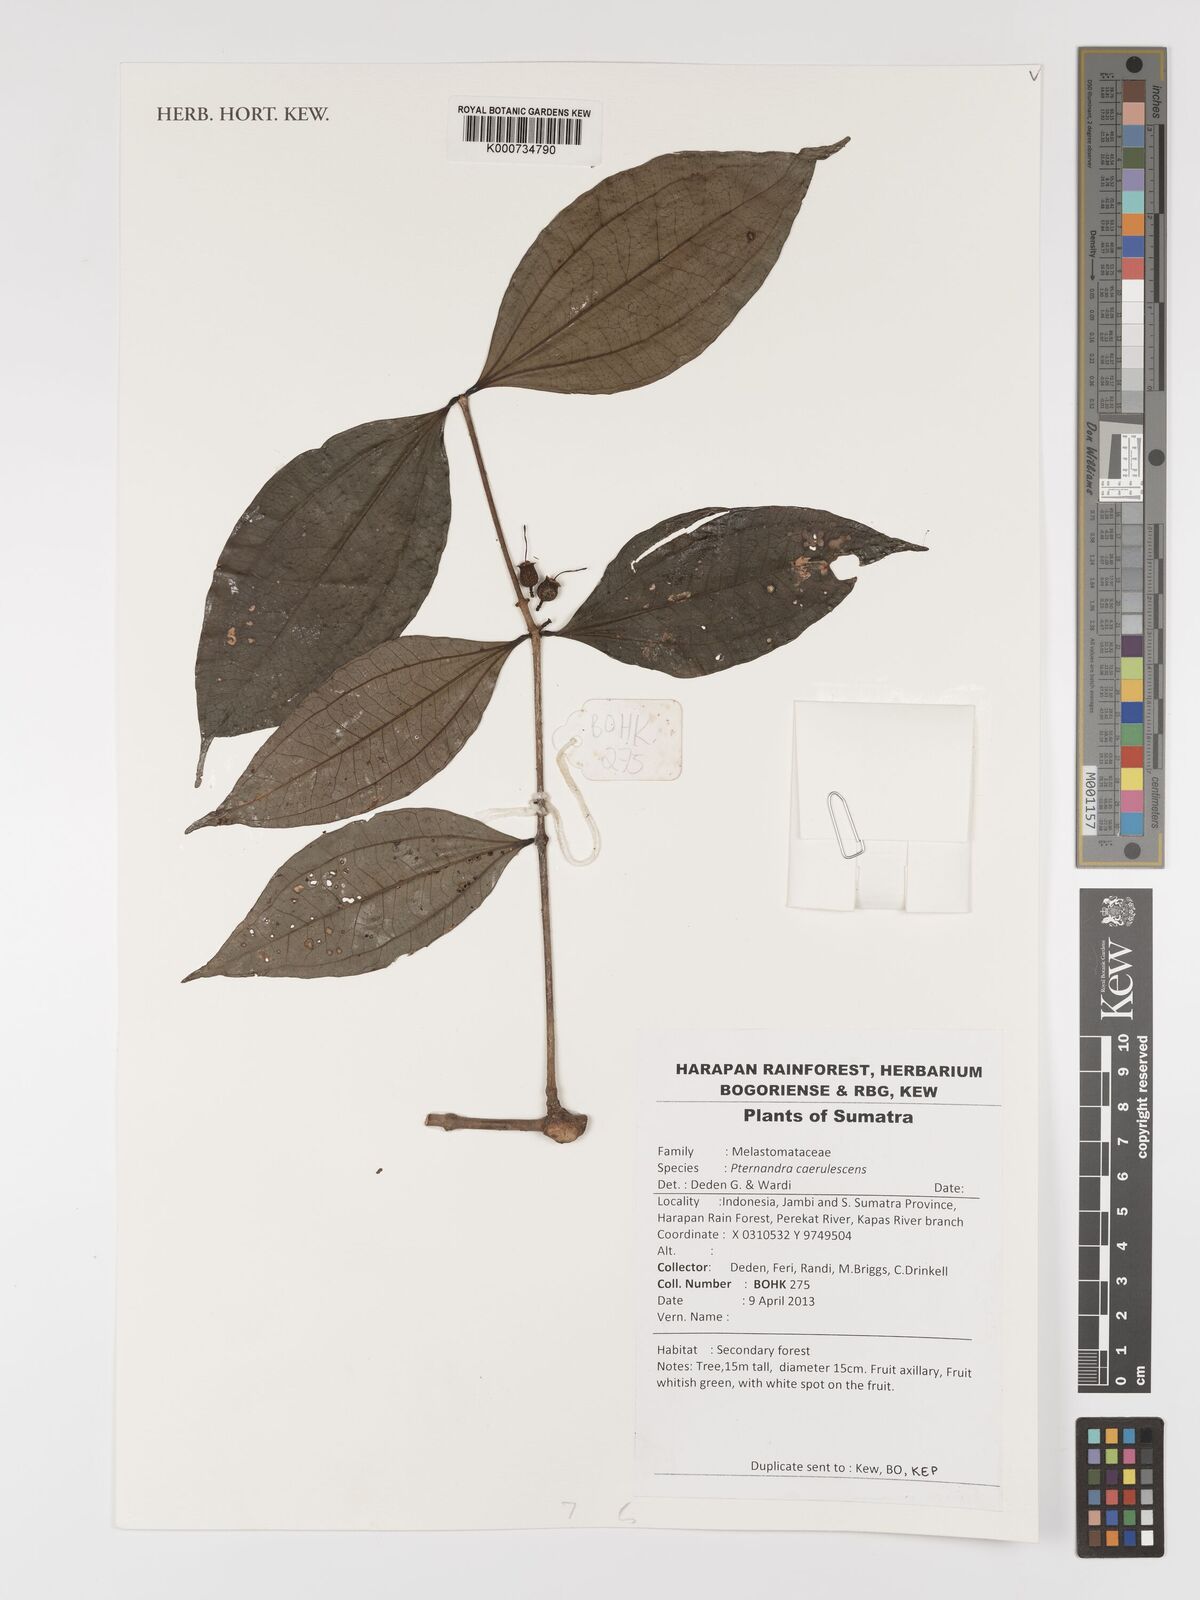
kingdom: Plantae
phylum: Tracheophyta
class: Magnoliopsida
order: Myrtales
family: Melastomataceae
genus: Pternandra
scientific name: Pternandra caerulescens
